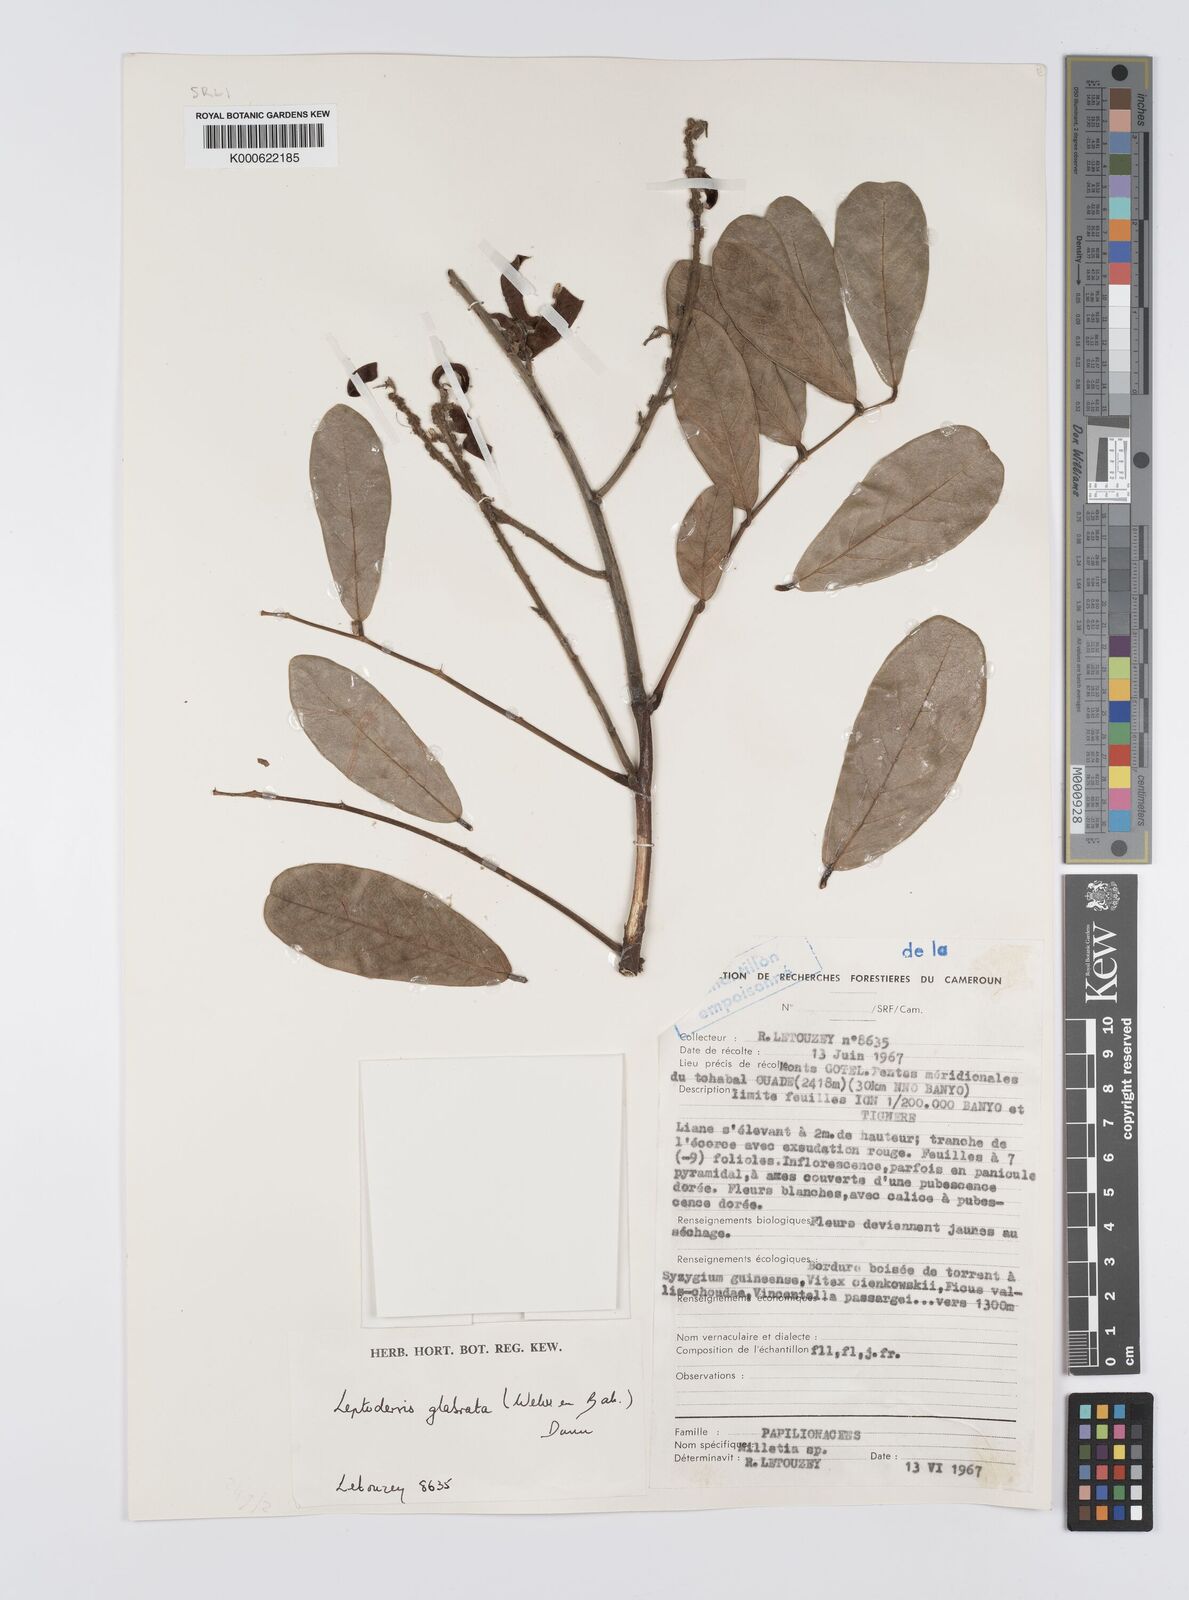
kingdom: Plantae
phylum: Tracheophyta
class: Magnoliopsida
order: Fabales
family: Fabaceae
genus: Leptoderris
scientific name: Leptoderris glabrata
